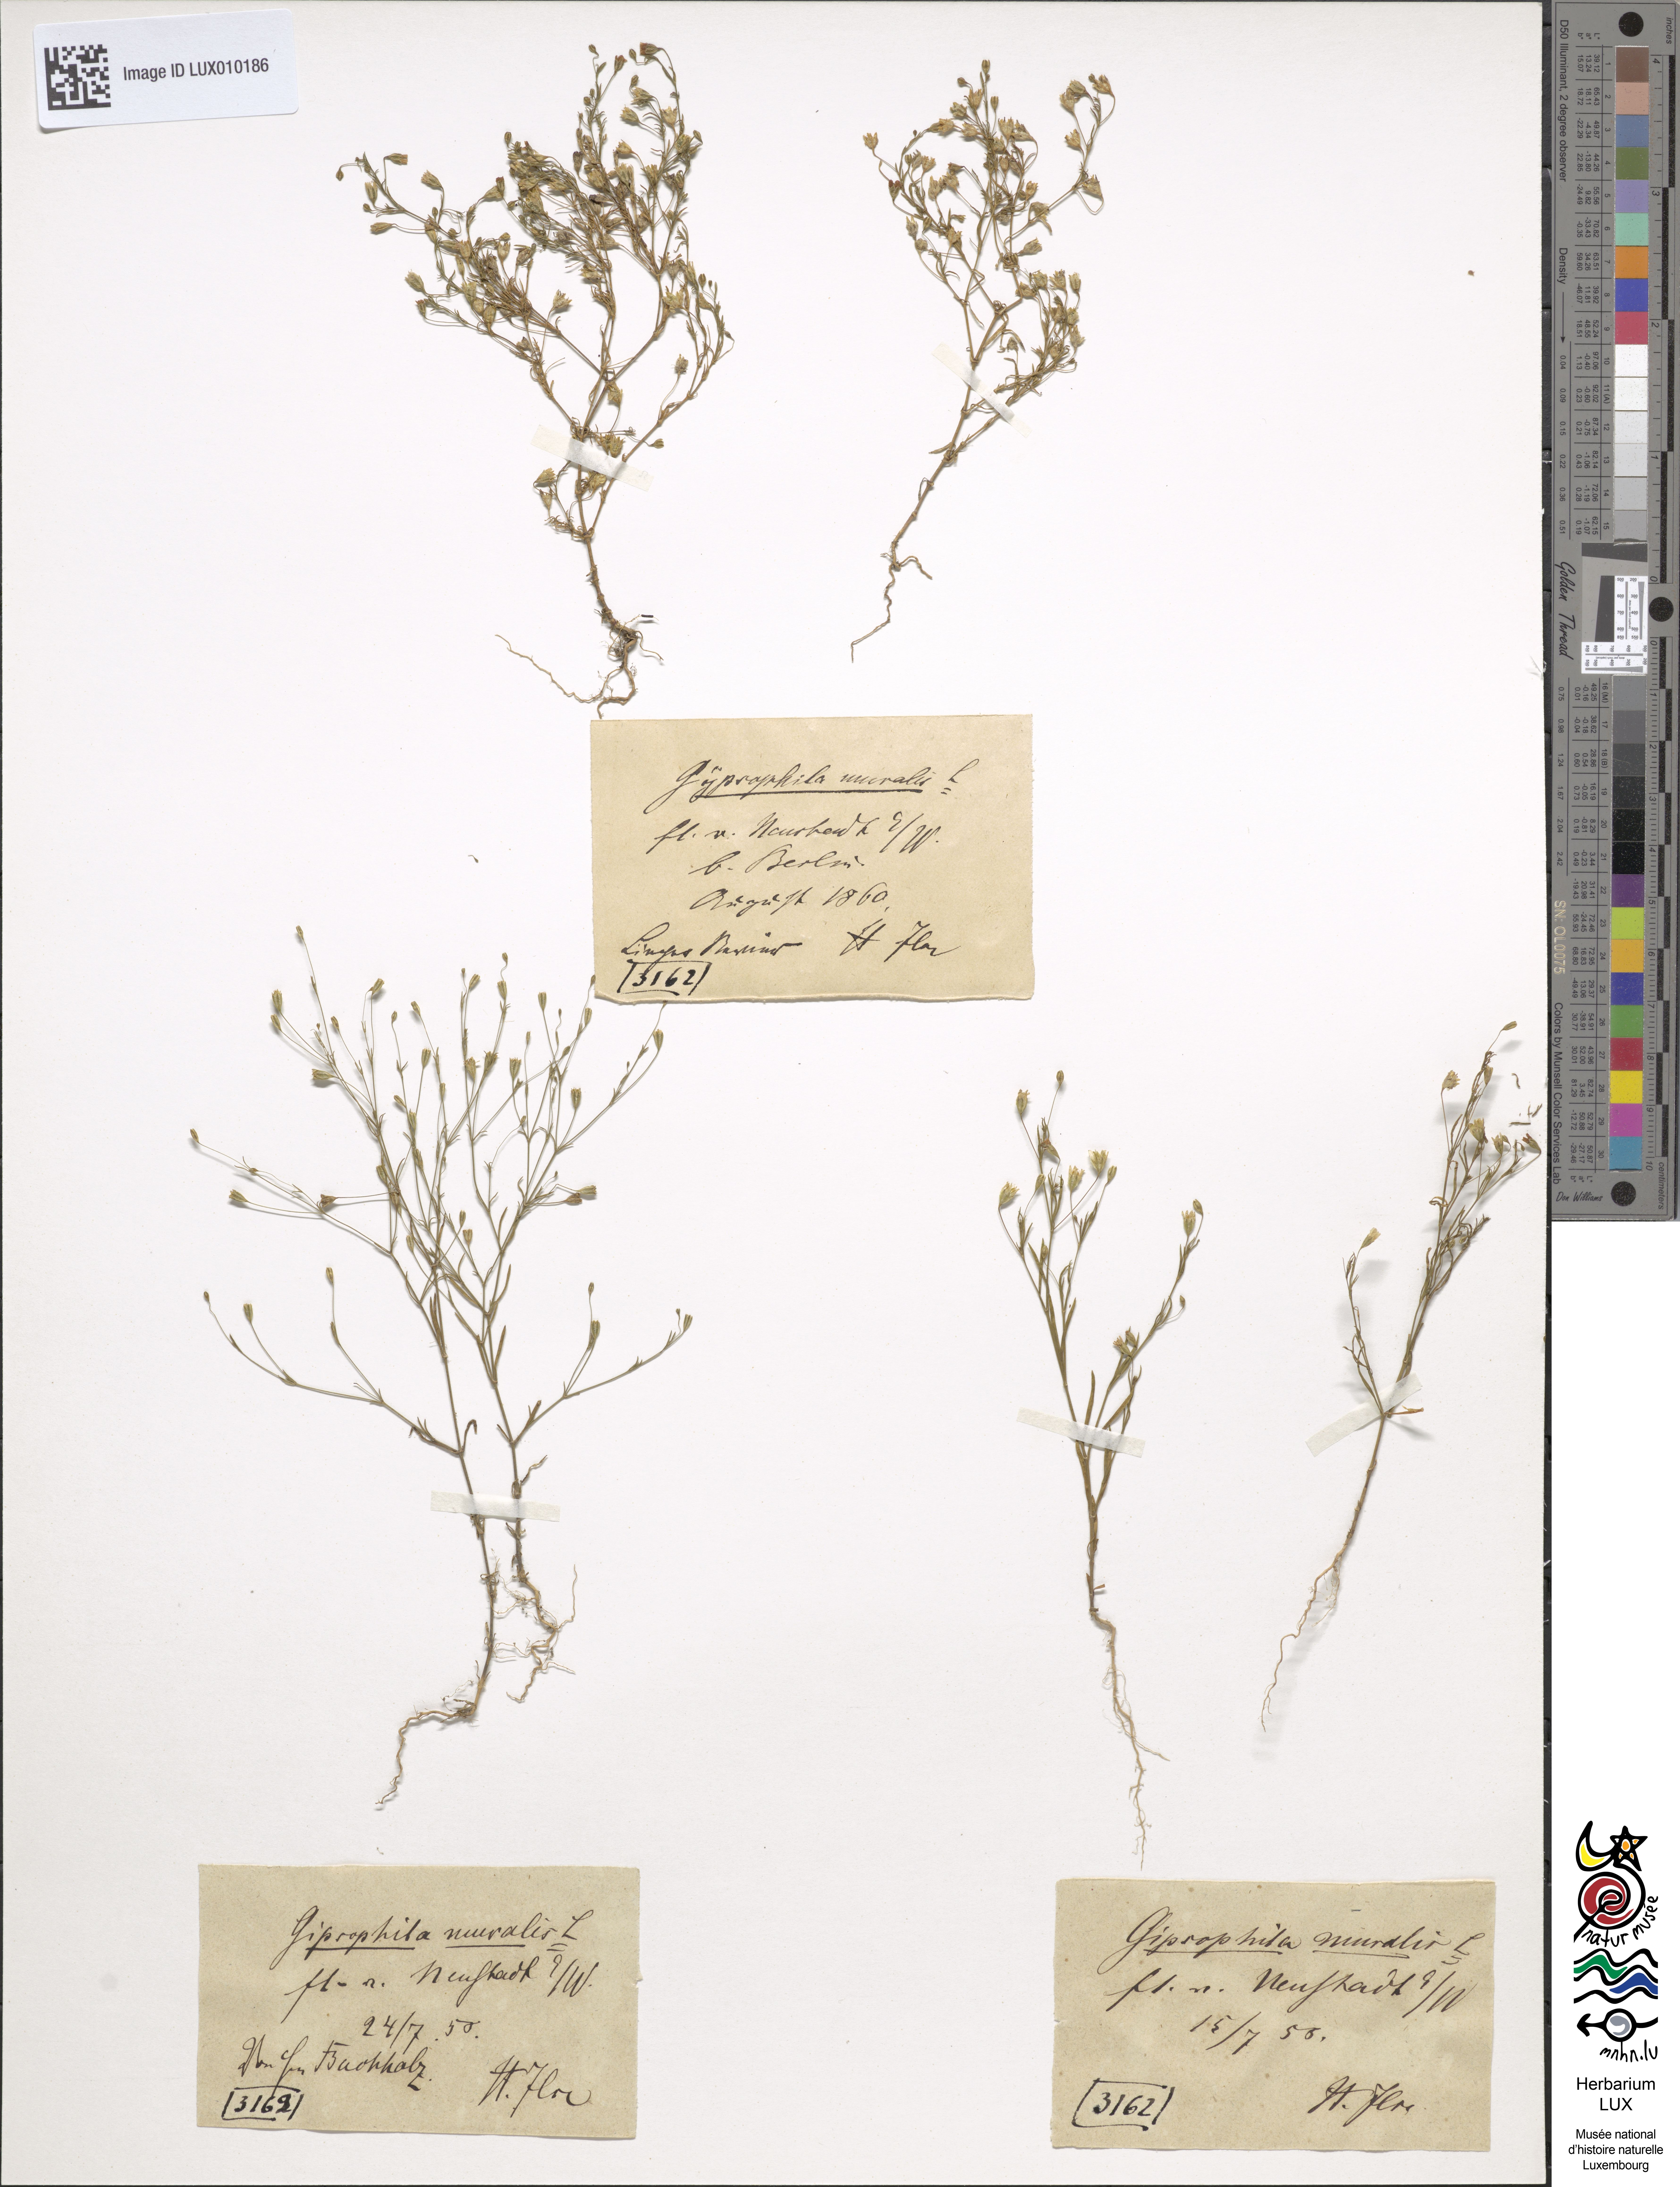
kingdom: Plantae
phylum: Tracheophyta
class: Magnoliopsida
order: Caryophyllales
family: Caryophyllaceae
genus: Psammophiliella
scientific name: Psammophiliella muralis
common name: Cushion baby's-breath
